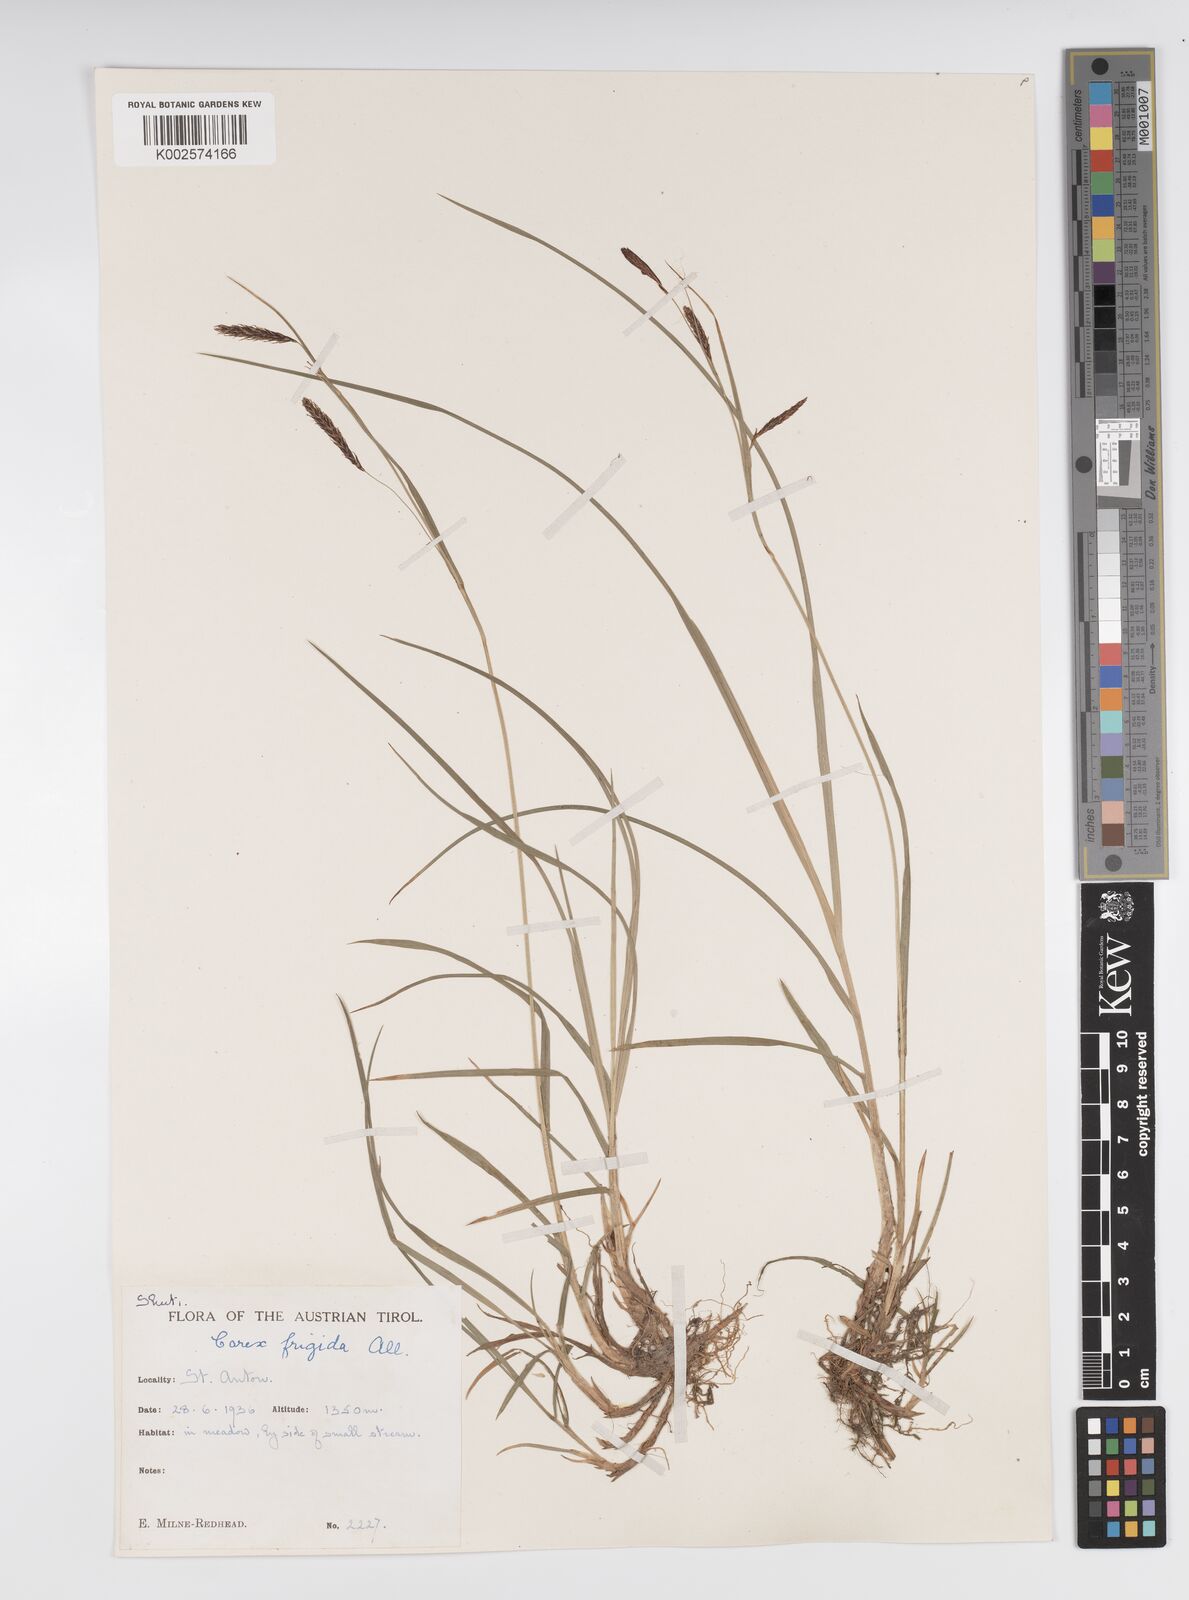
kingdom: Plantae
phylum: Tracheophyta
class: Liliopsida
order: Poales
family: Cyperaceae
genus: Carex
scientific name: Carex frigida
